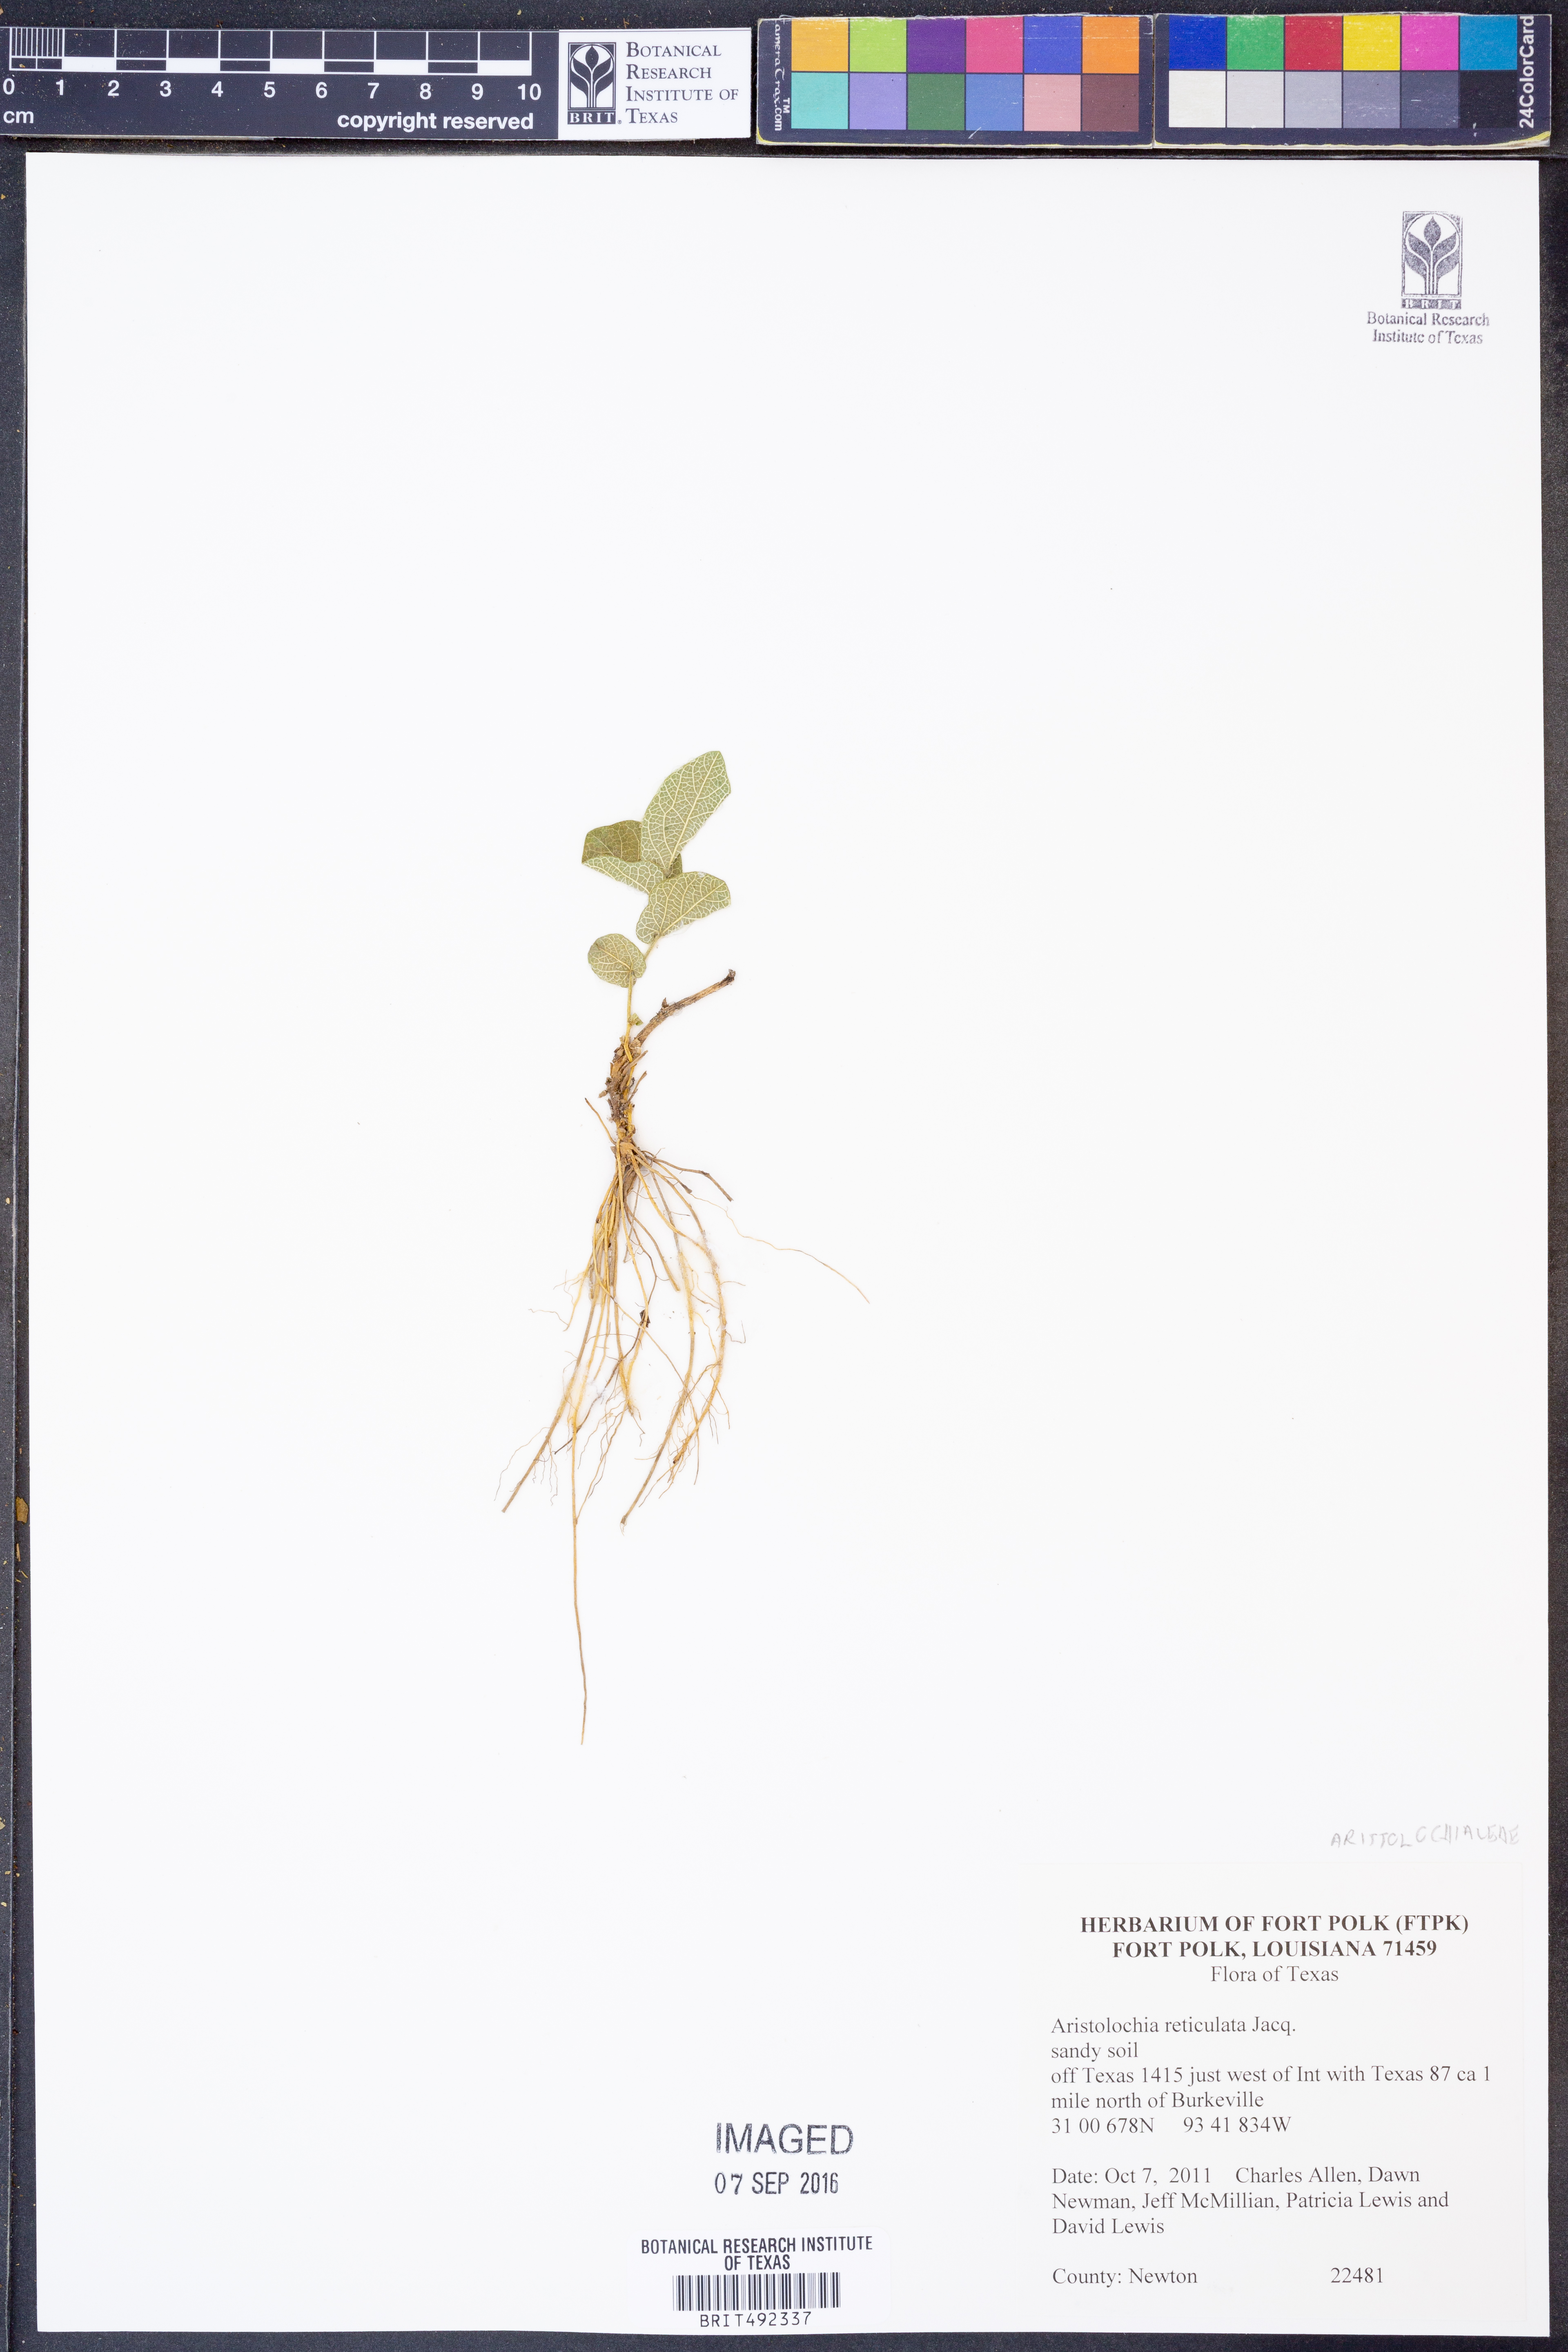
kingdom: Plantae
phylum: Tracheophyta
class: Magnoliopsida
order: Piperales
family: Aristolochiaceae
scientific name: Aristolochiaceae
